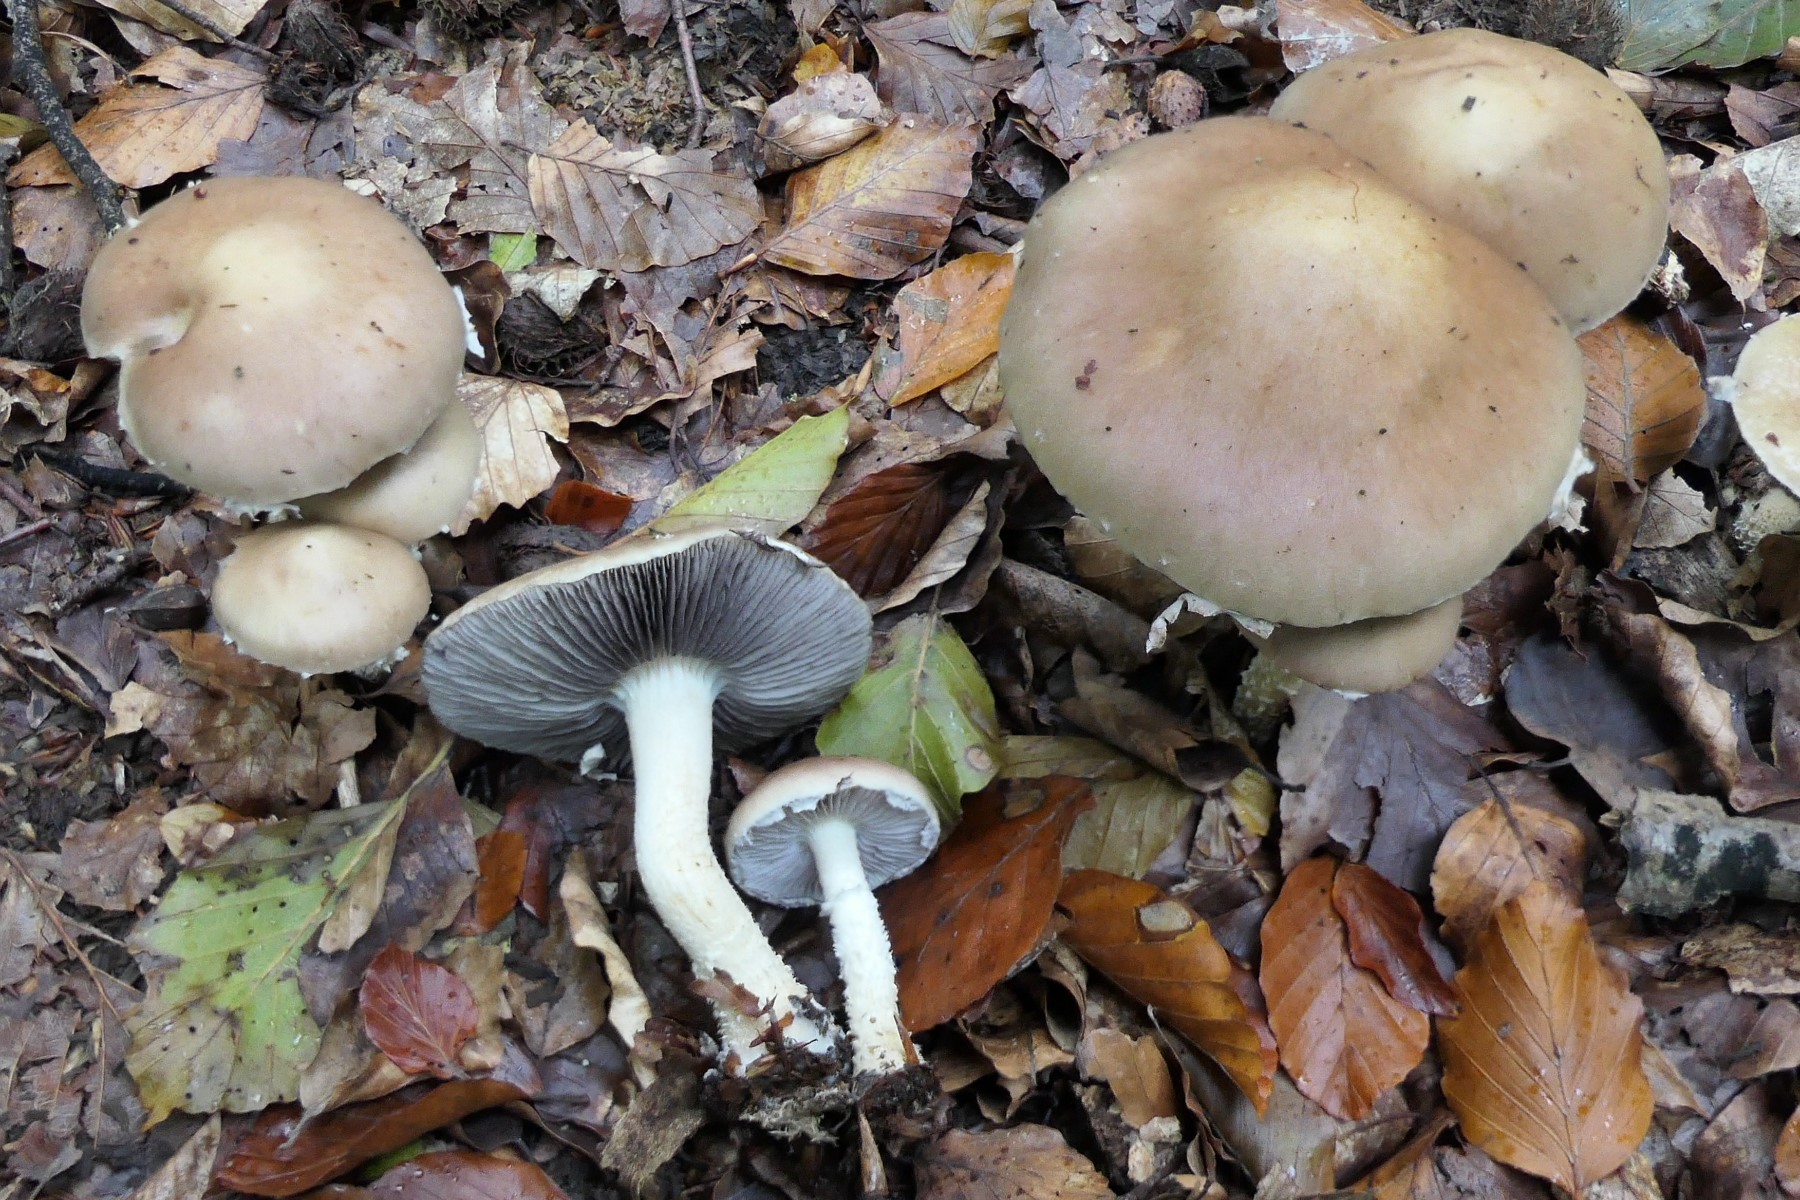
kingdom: Fungi
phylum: Basidiomycota
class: Agaricomycetes
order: Agaricales
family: Strophariaceae
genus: Stropharia
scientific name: Stropharia hornemannii
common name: nordisk bredblad
